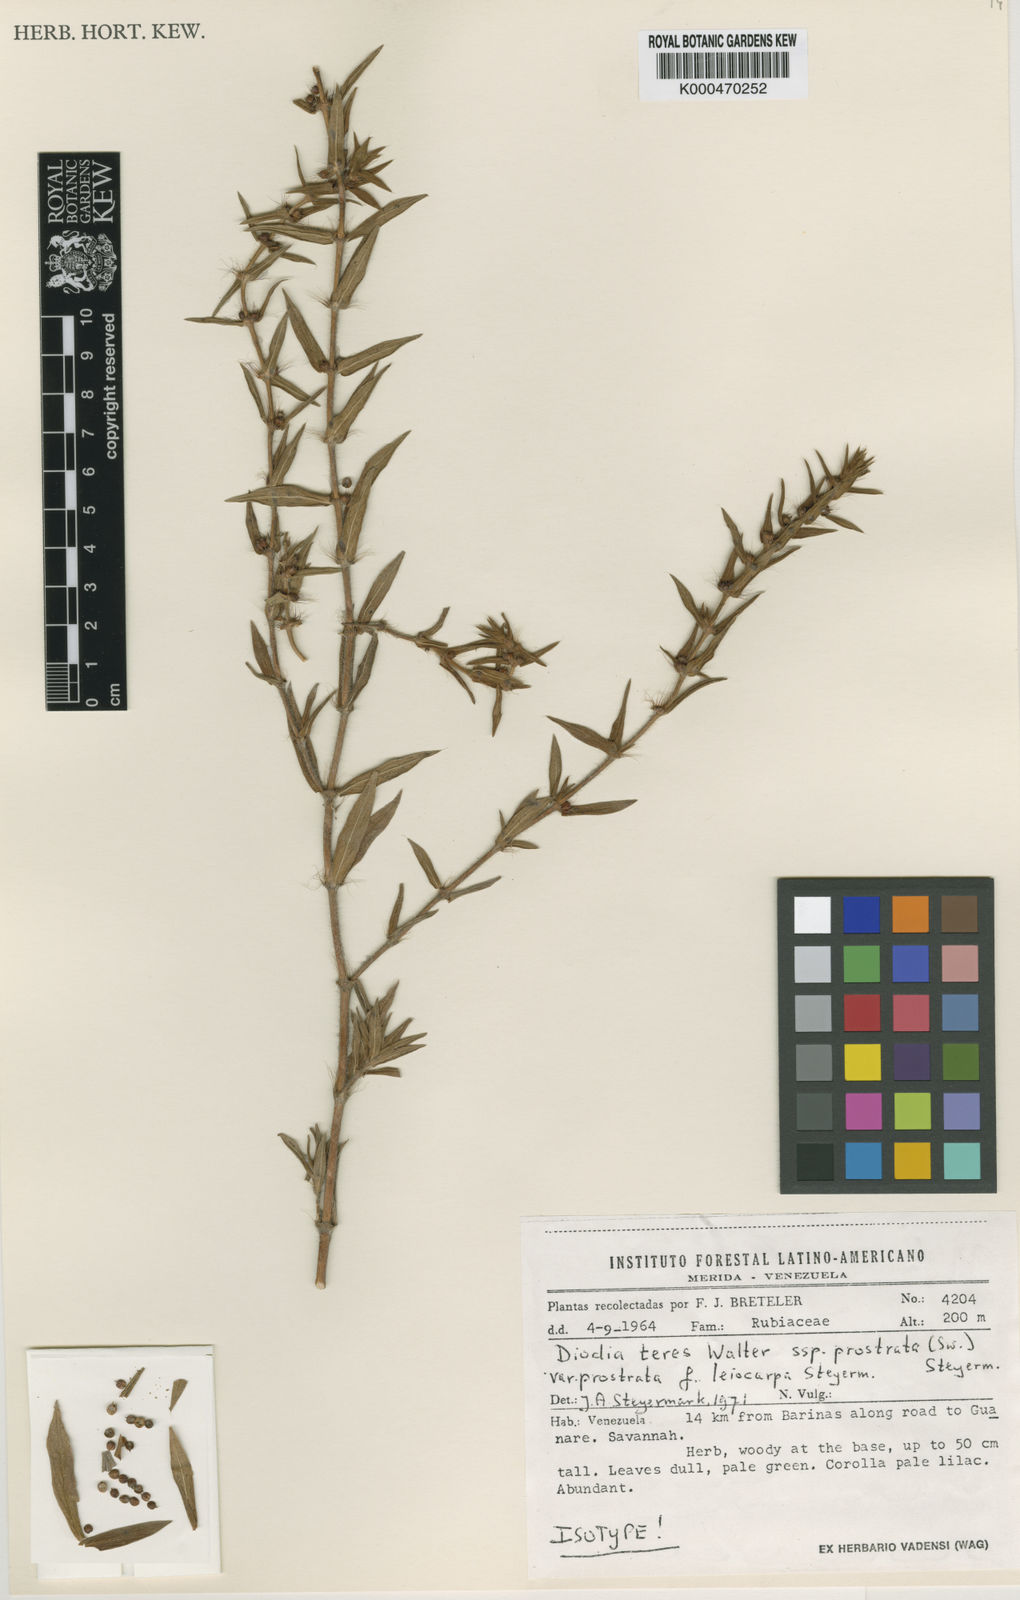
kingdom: Plantae
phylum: Tracheophyta
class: Magnoliopsida
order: Gentianales
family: Rubiaceae
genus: Hexasepalum
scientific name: Hexasepalum teres
